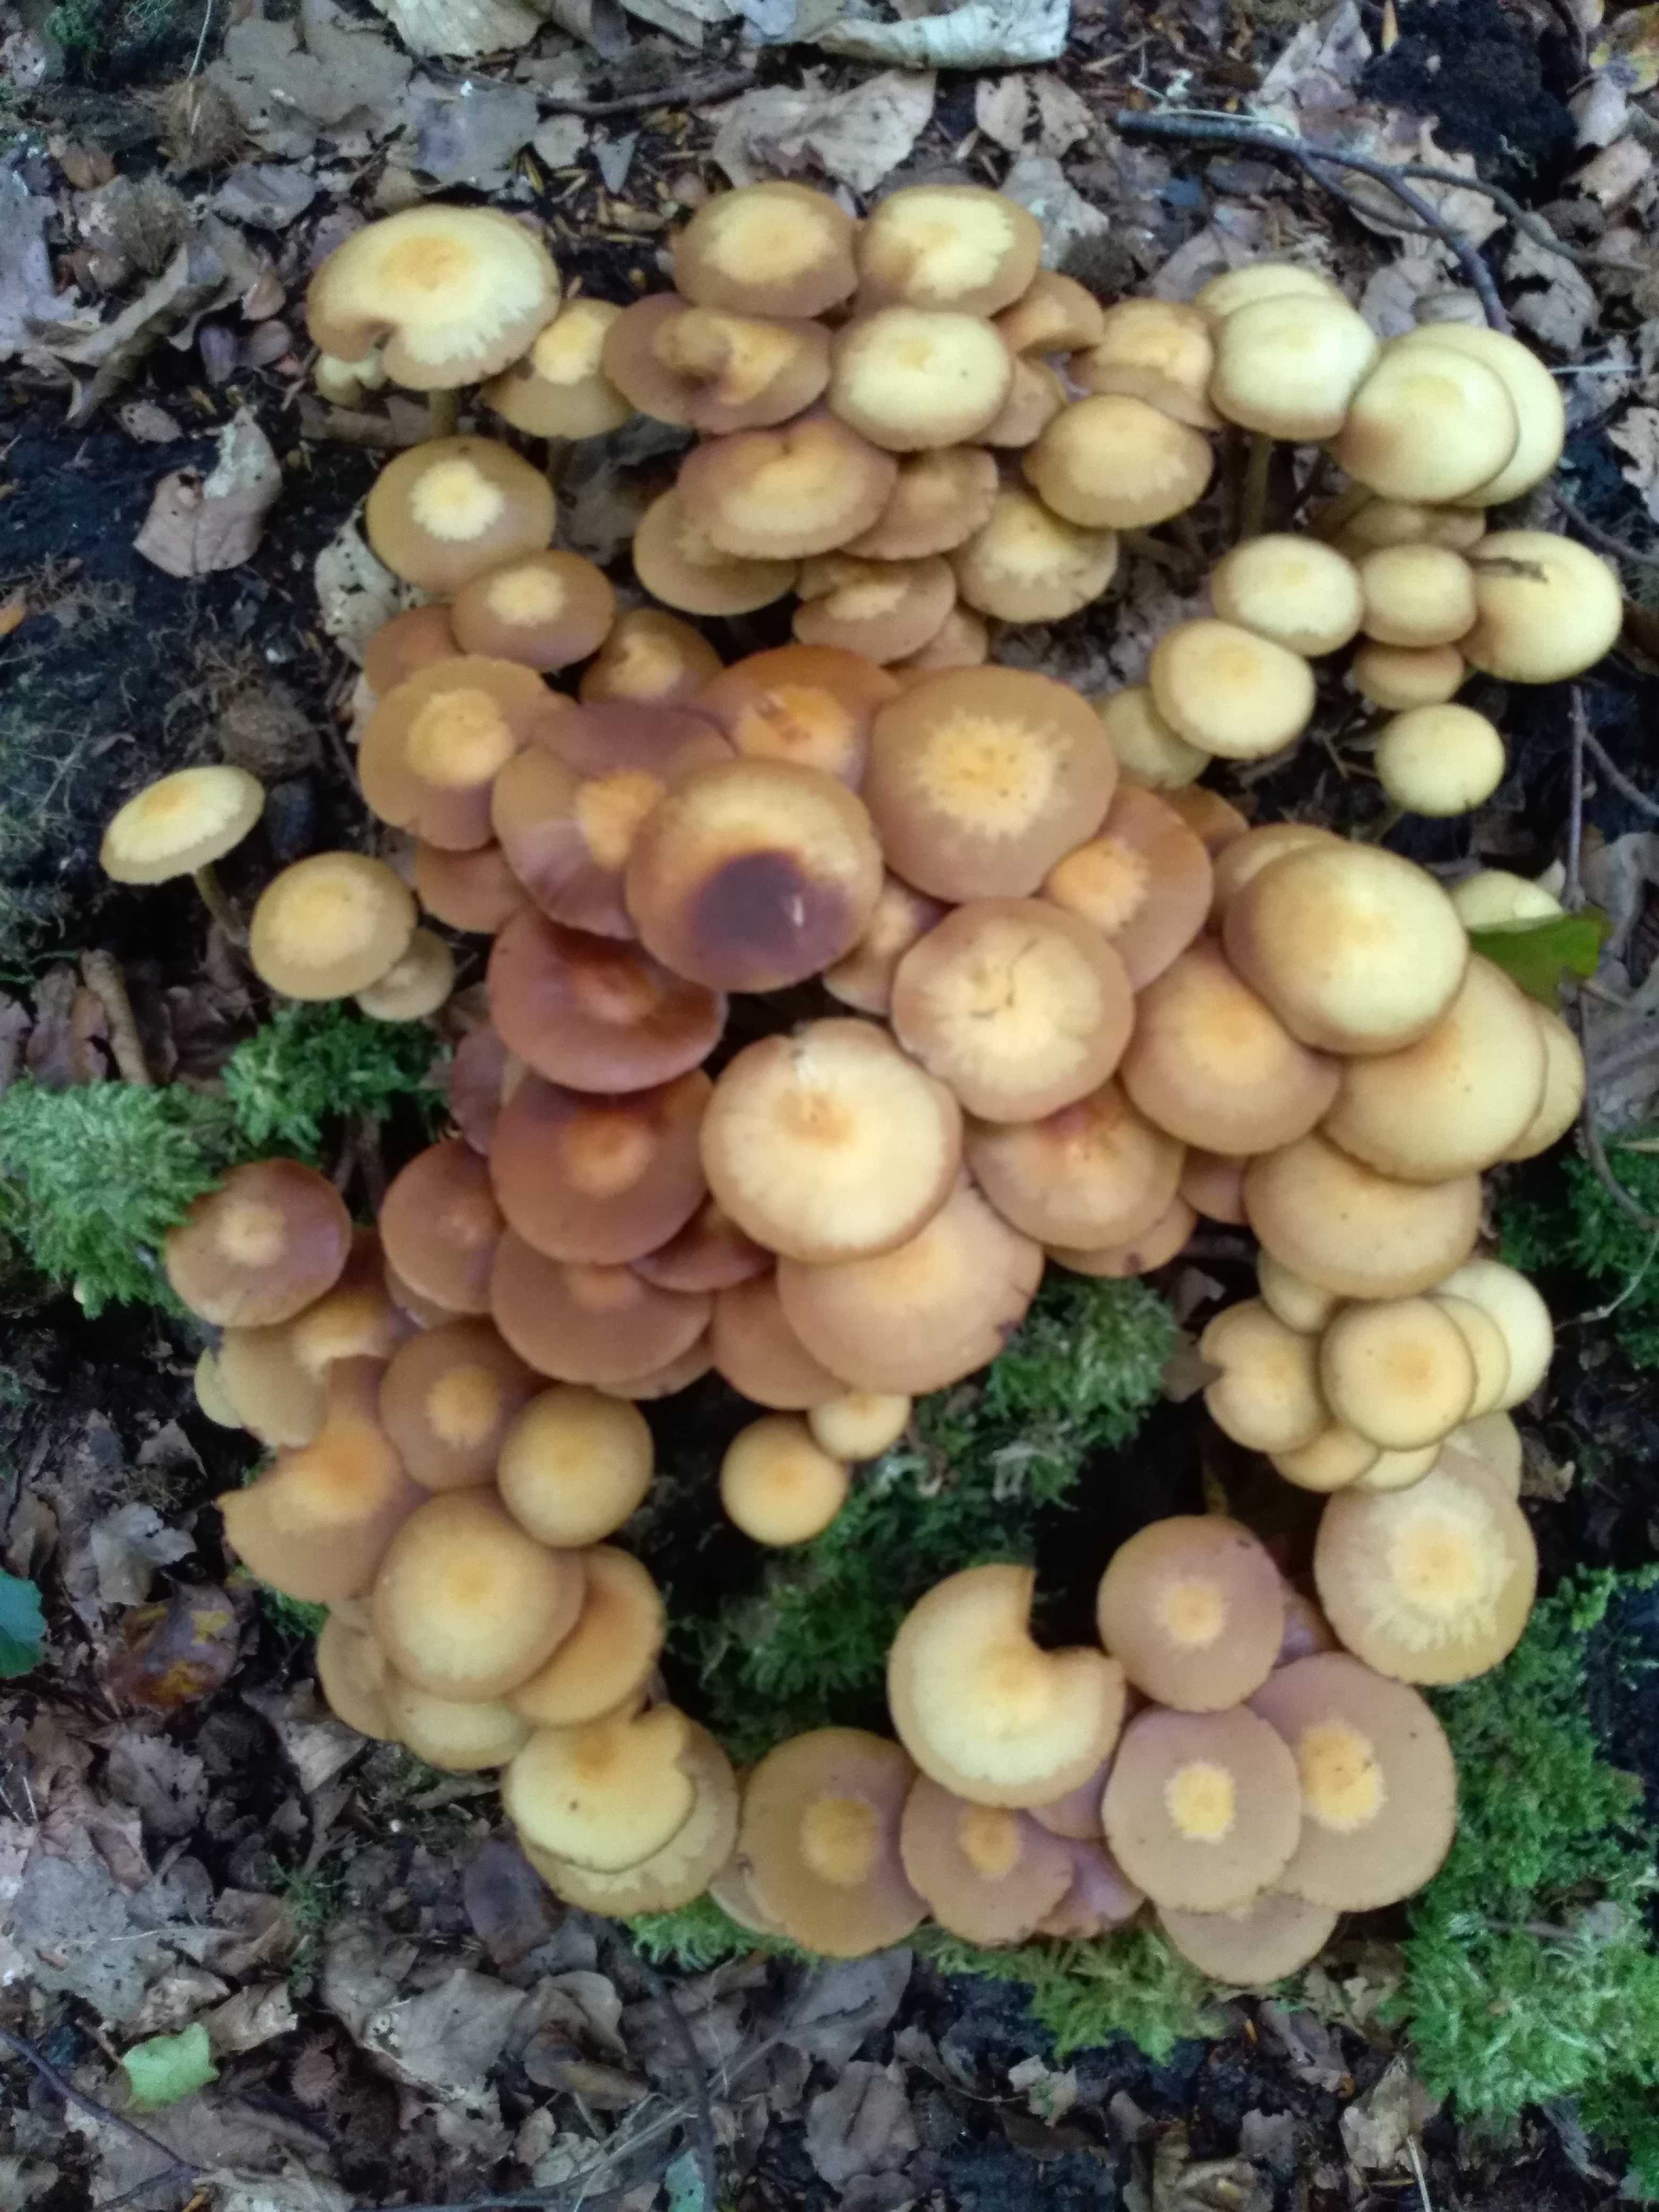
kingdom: Fungi
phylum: Basidiomycota
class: Agaricomycetes
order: Agaricales
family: Strophariaceae
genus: Kuehneromyces
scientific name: Kuehneromyces mutabilis
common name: foranderlig skælhat
